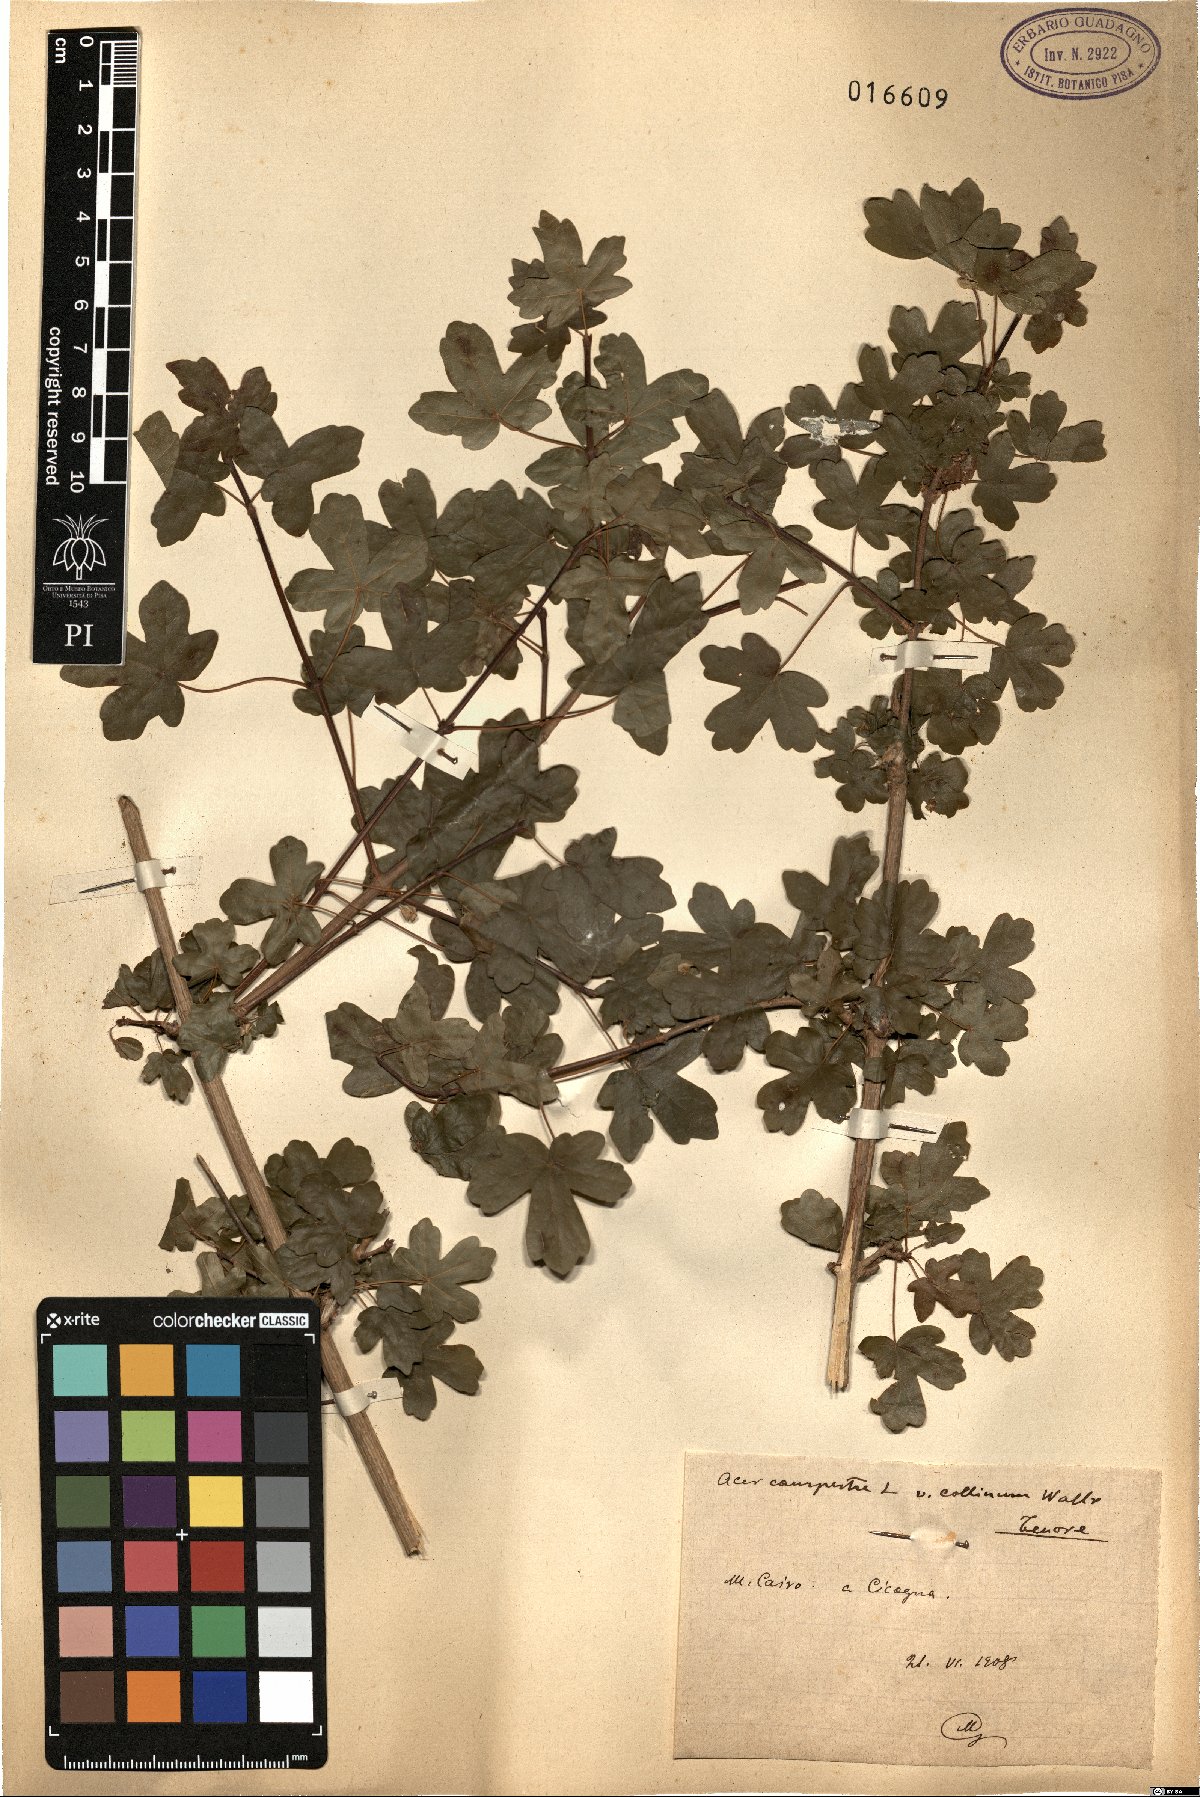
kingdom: Plantae
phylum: Tracheophyta
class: Magnoliopsida
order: Sapindales
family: Sapindaceae
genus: Acer
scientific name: Acer campestre
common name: Field maple
